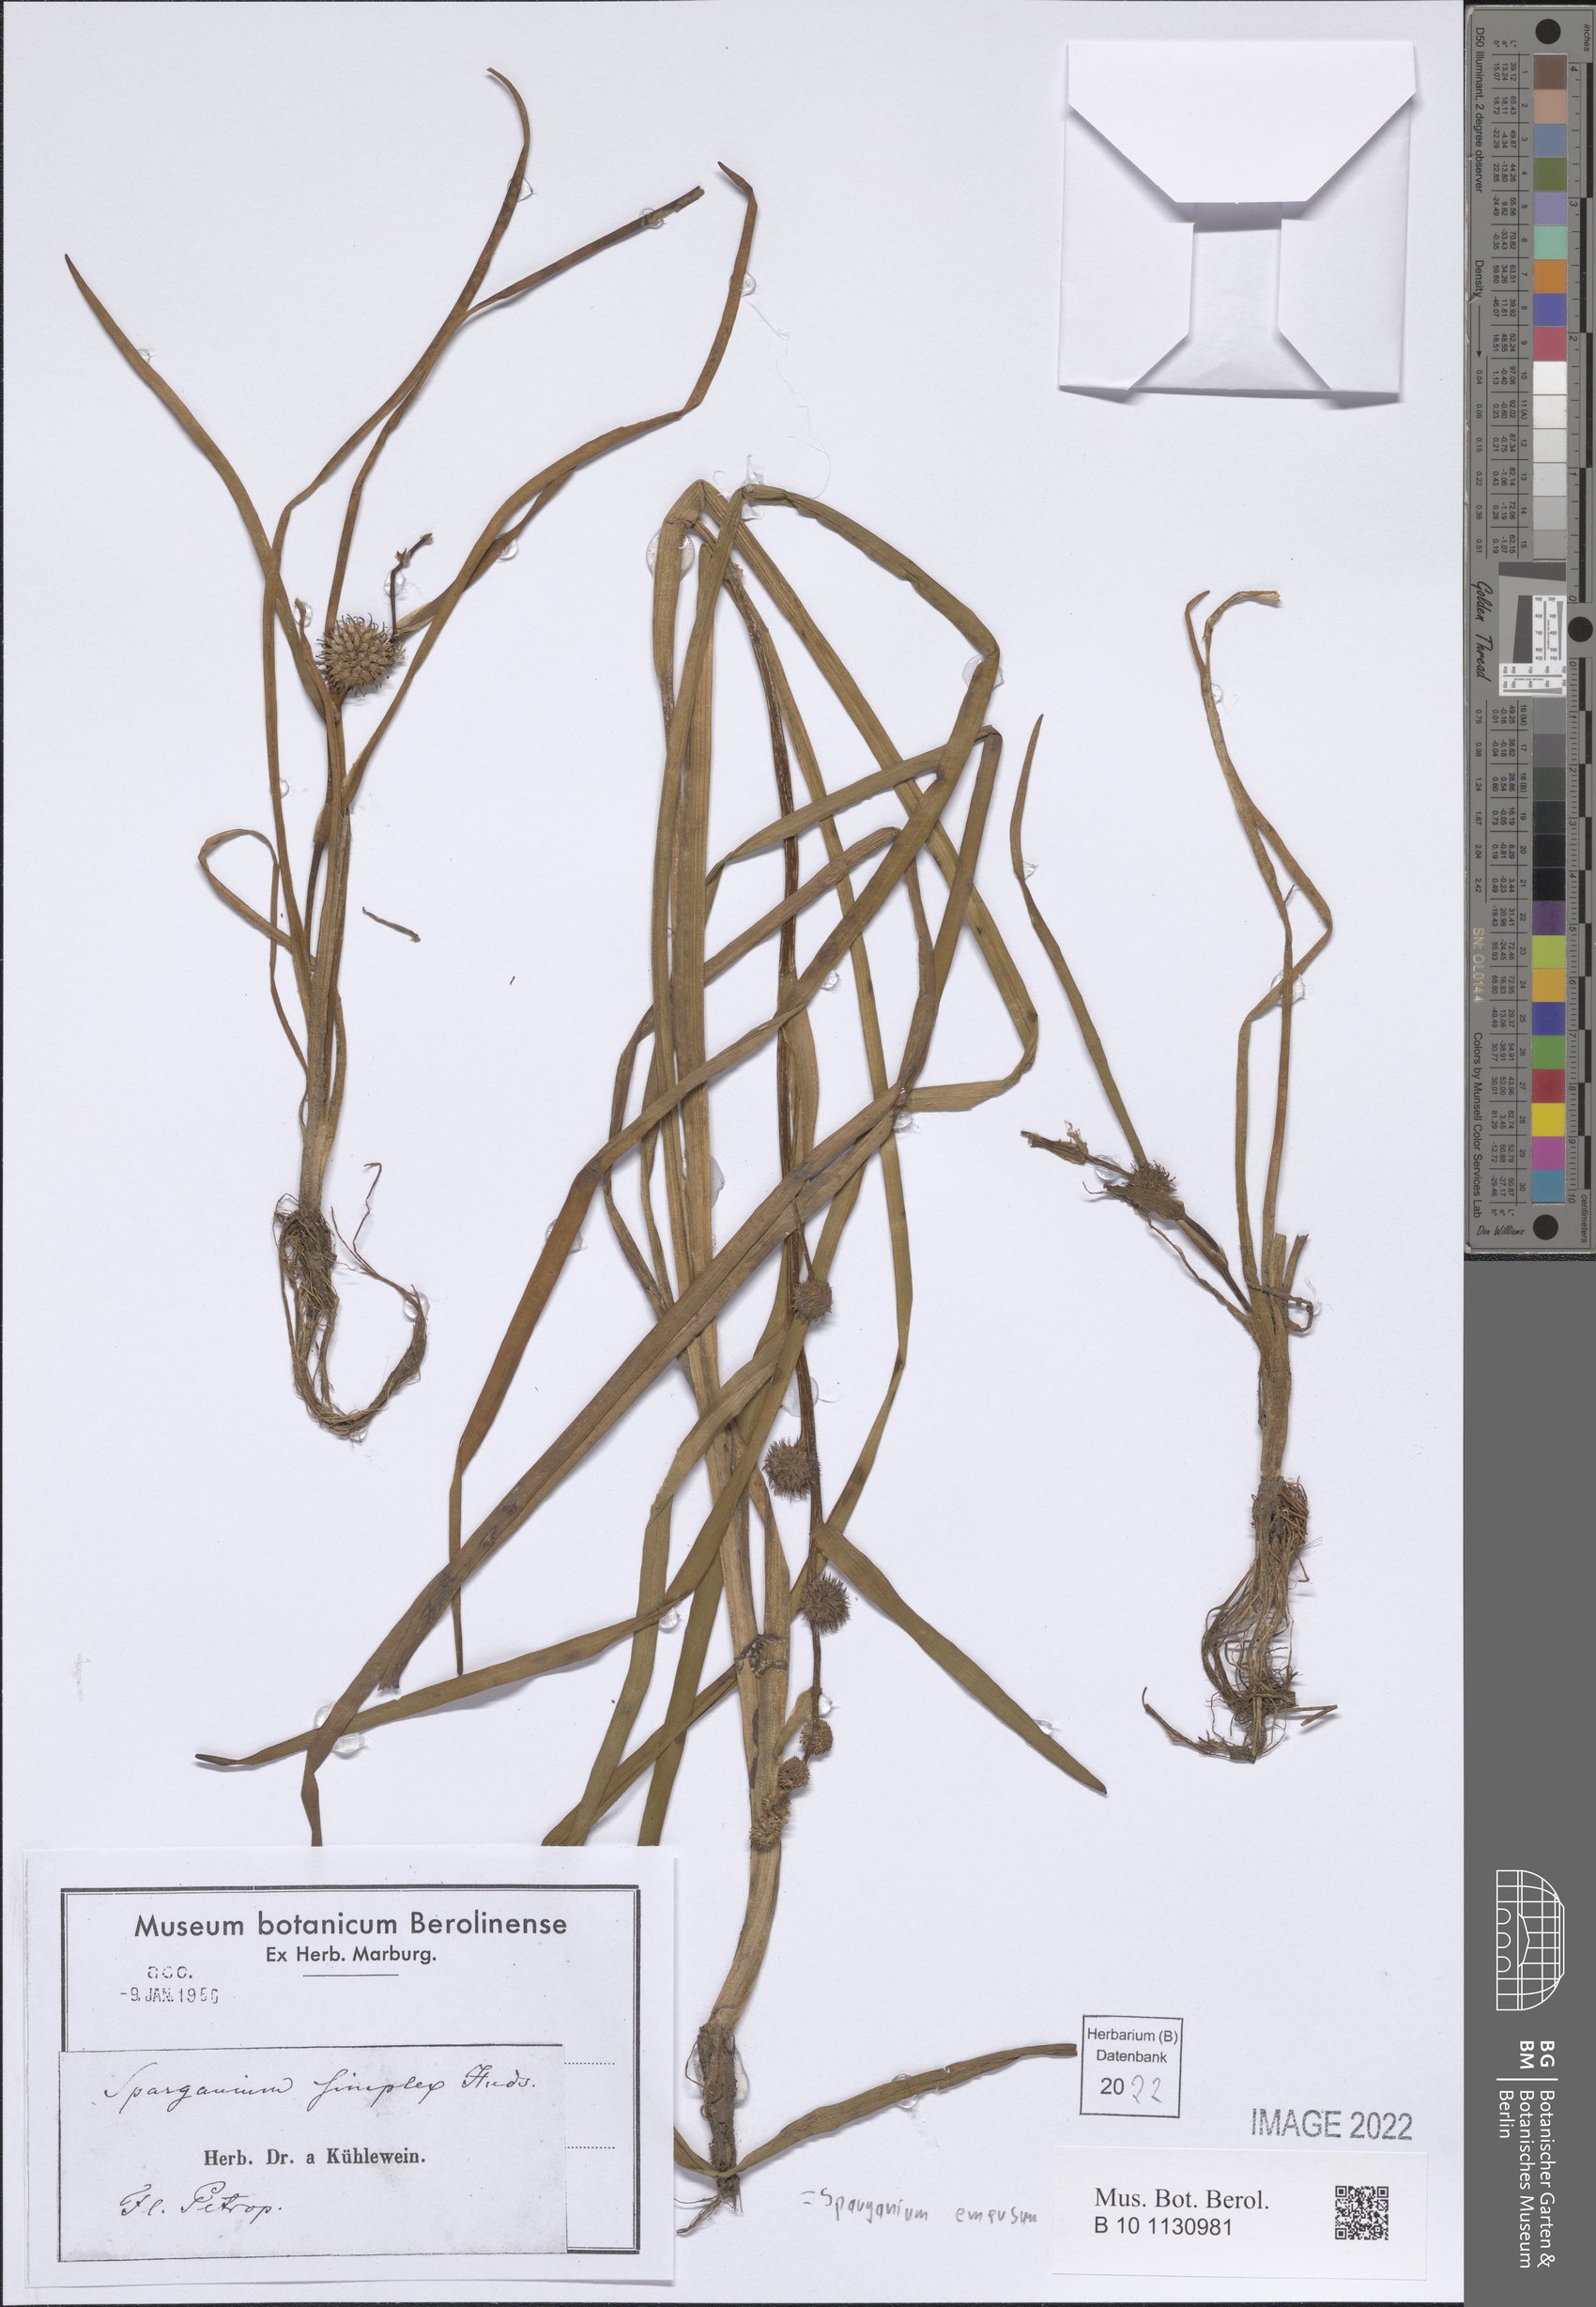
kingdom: Plantae
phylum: Tracheophyta
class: Liliopsida
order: Poales
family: Typhaceae
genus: Sparganium
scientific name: Sparganium emersum
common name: Unbranched bur-reed
